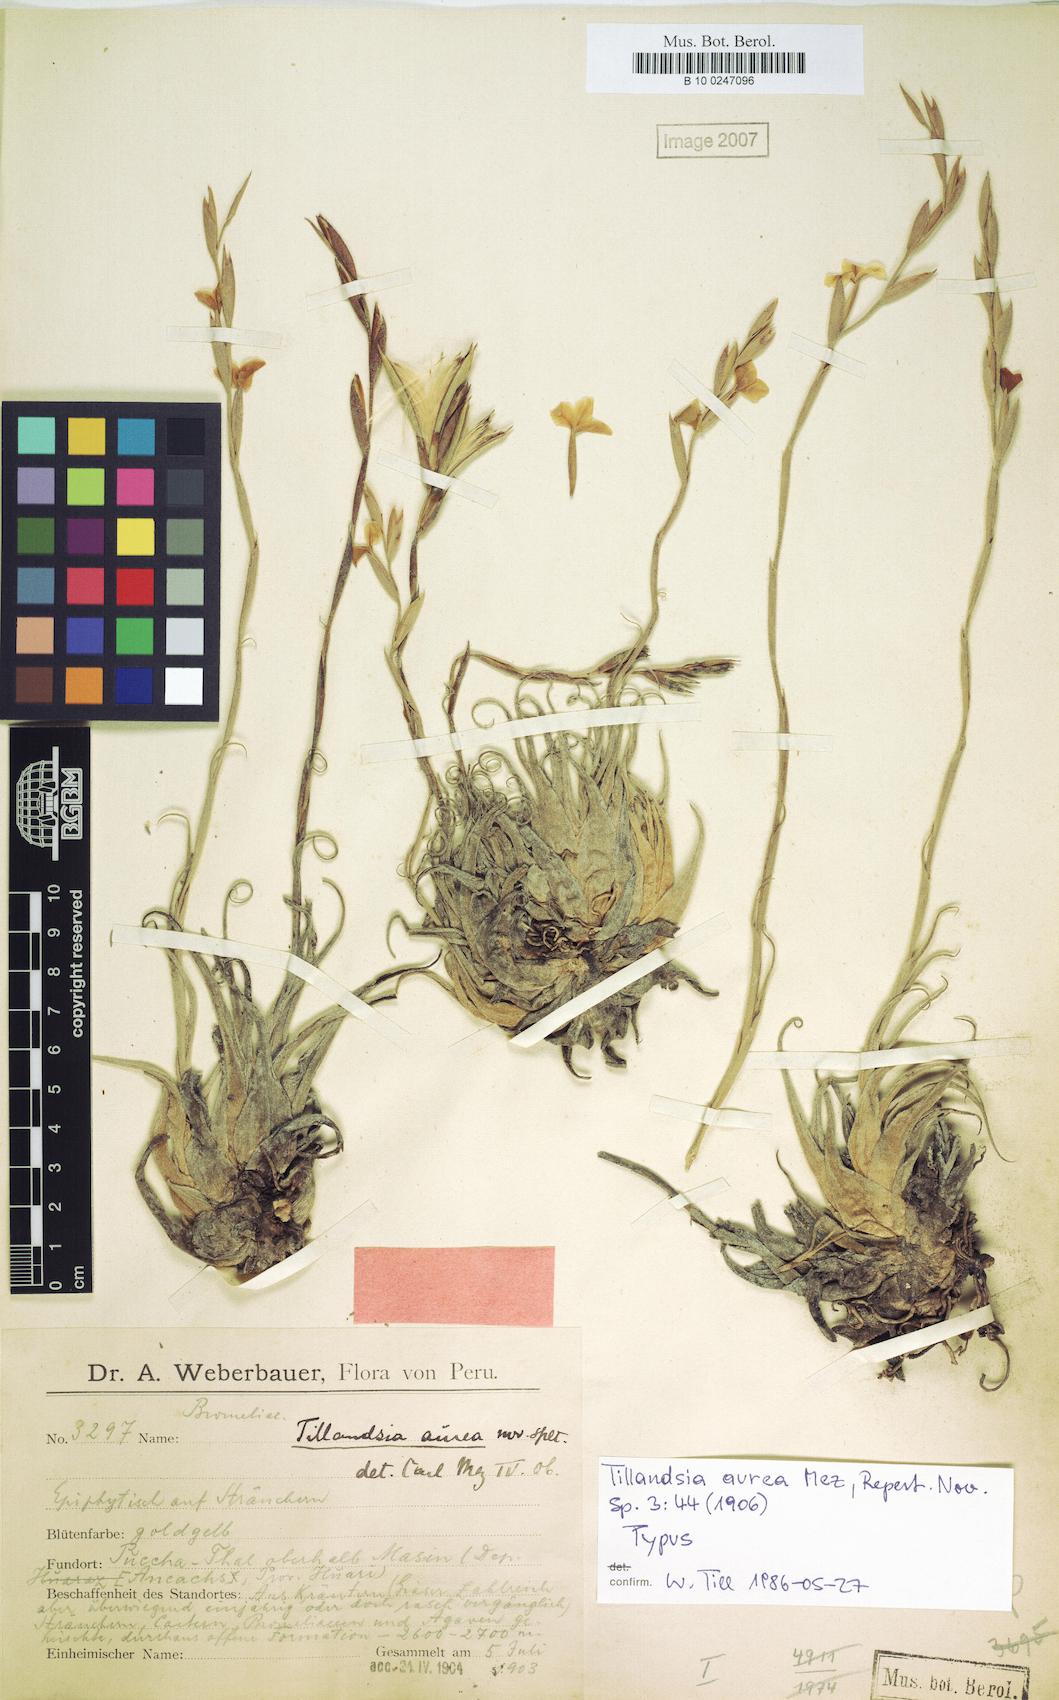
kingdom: Plantae
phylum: Tracheophyta
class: Liliopsida
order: Poales
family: Bromeliaceae
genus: Tillandsia
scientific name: Tillandsia aurea
